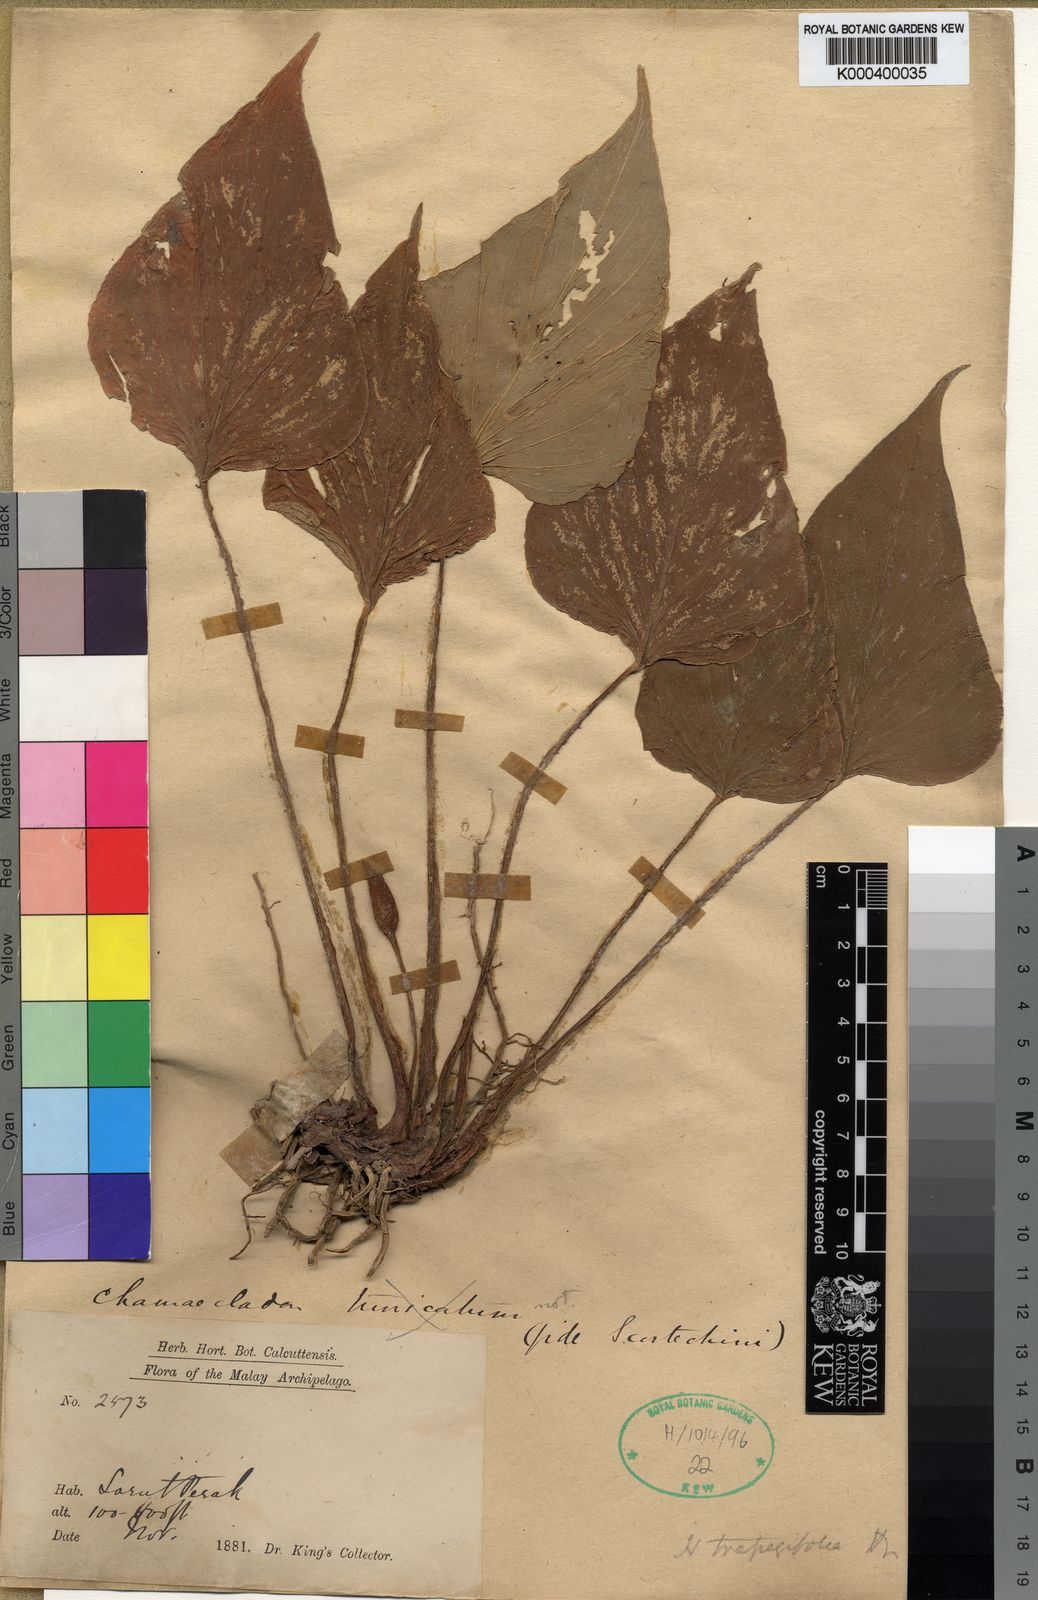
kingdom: Plantae
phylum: Tracheophyta
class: Liliopsida
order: Alismatales
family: Araceae
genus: Homalomena
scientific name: Homalomena griffithii
